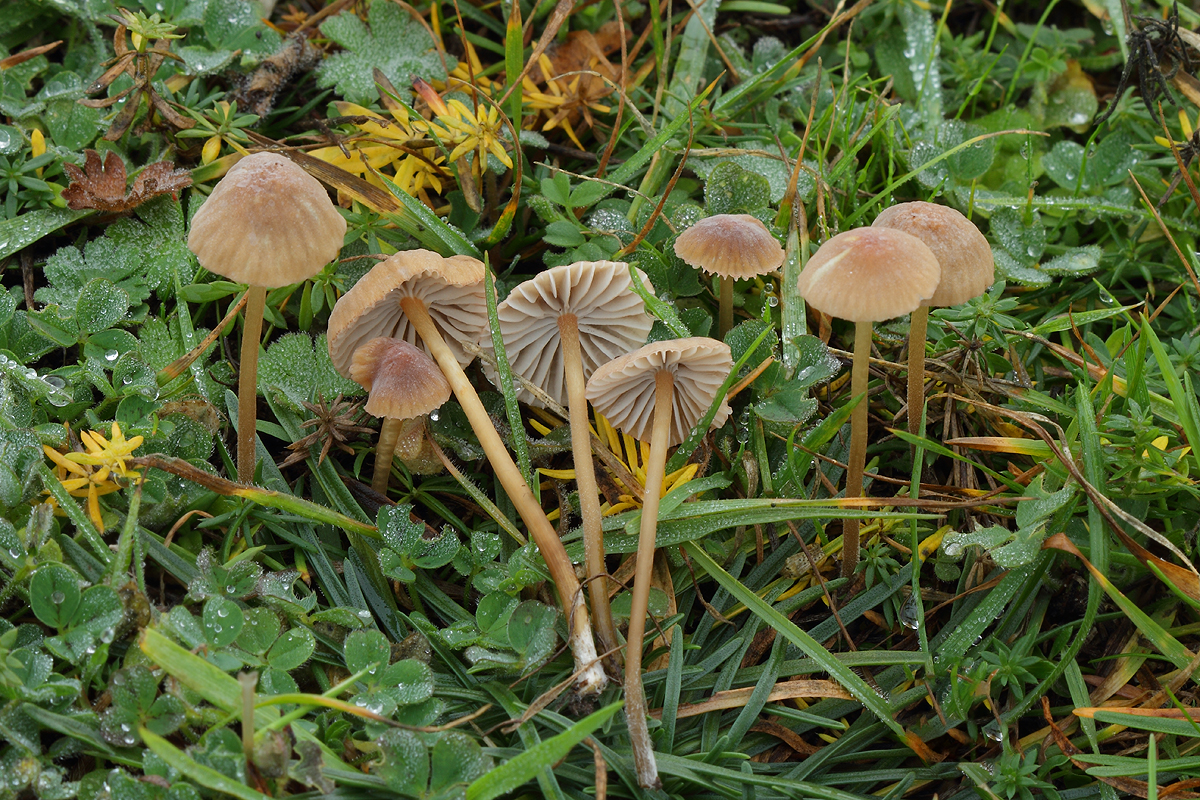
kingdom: Fungi
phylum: Basidiomycota
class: Agaricomycetes
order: Agaricales
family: Mycenaceae
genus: Mycena
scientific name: Mycena olivaceomarginata
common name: brunægget huesvamp
